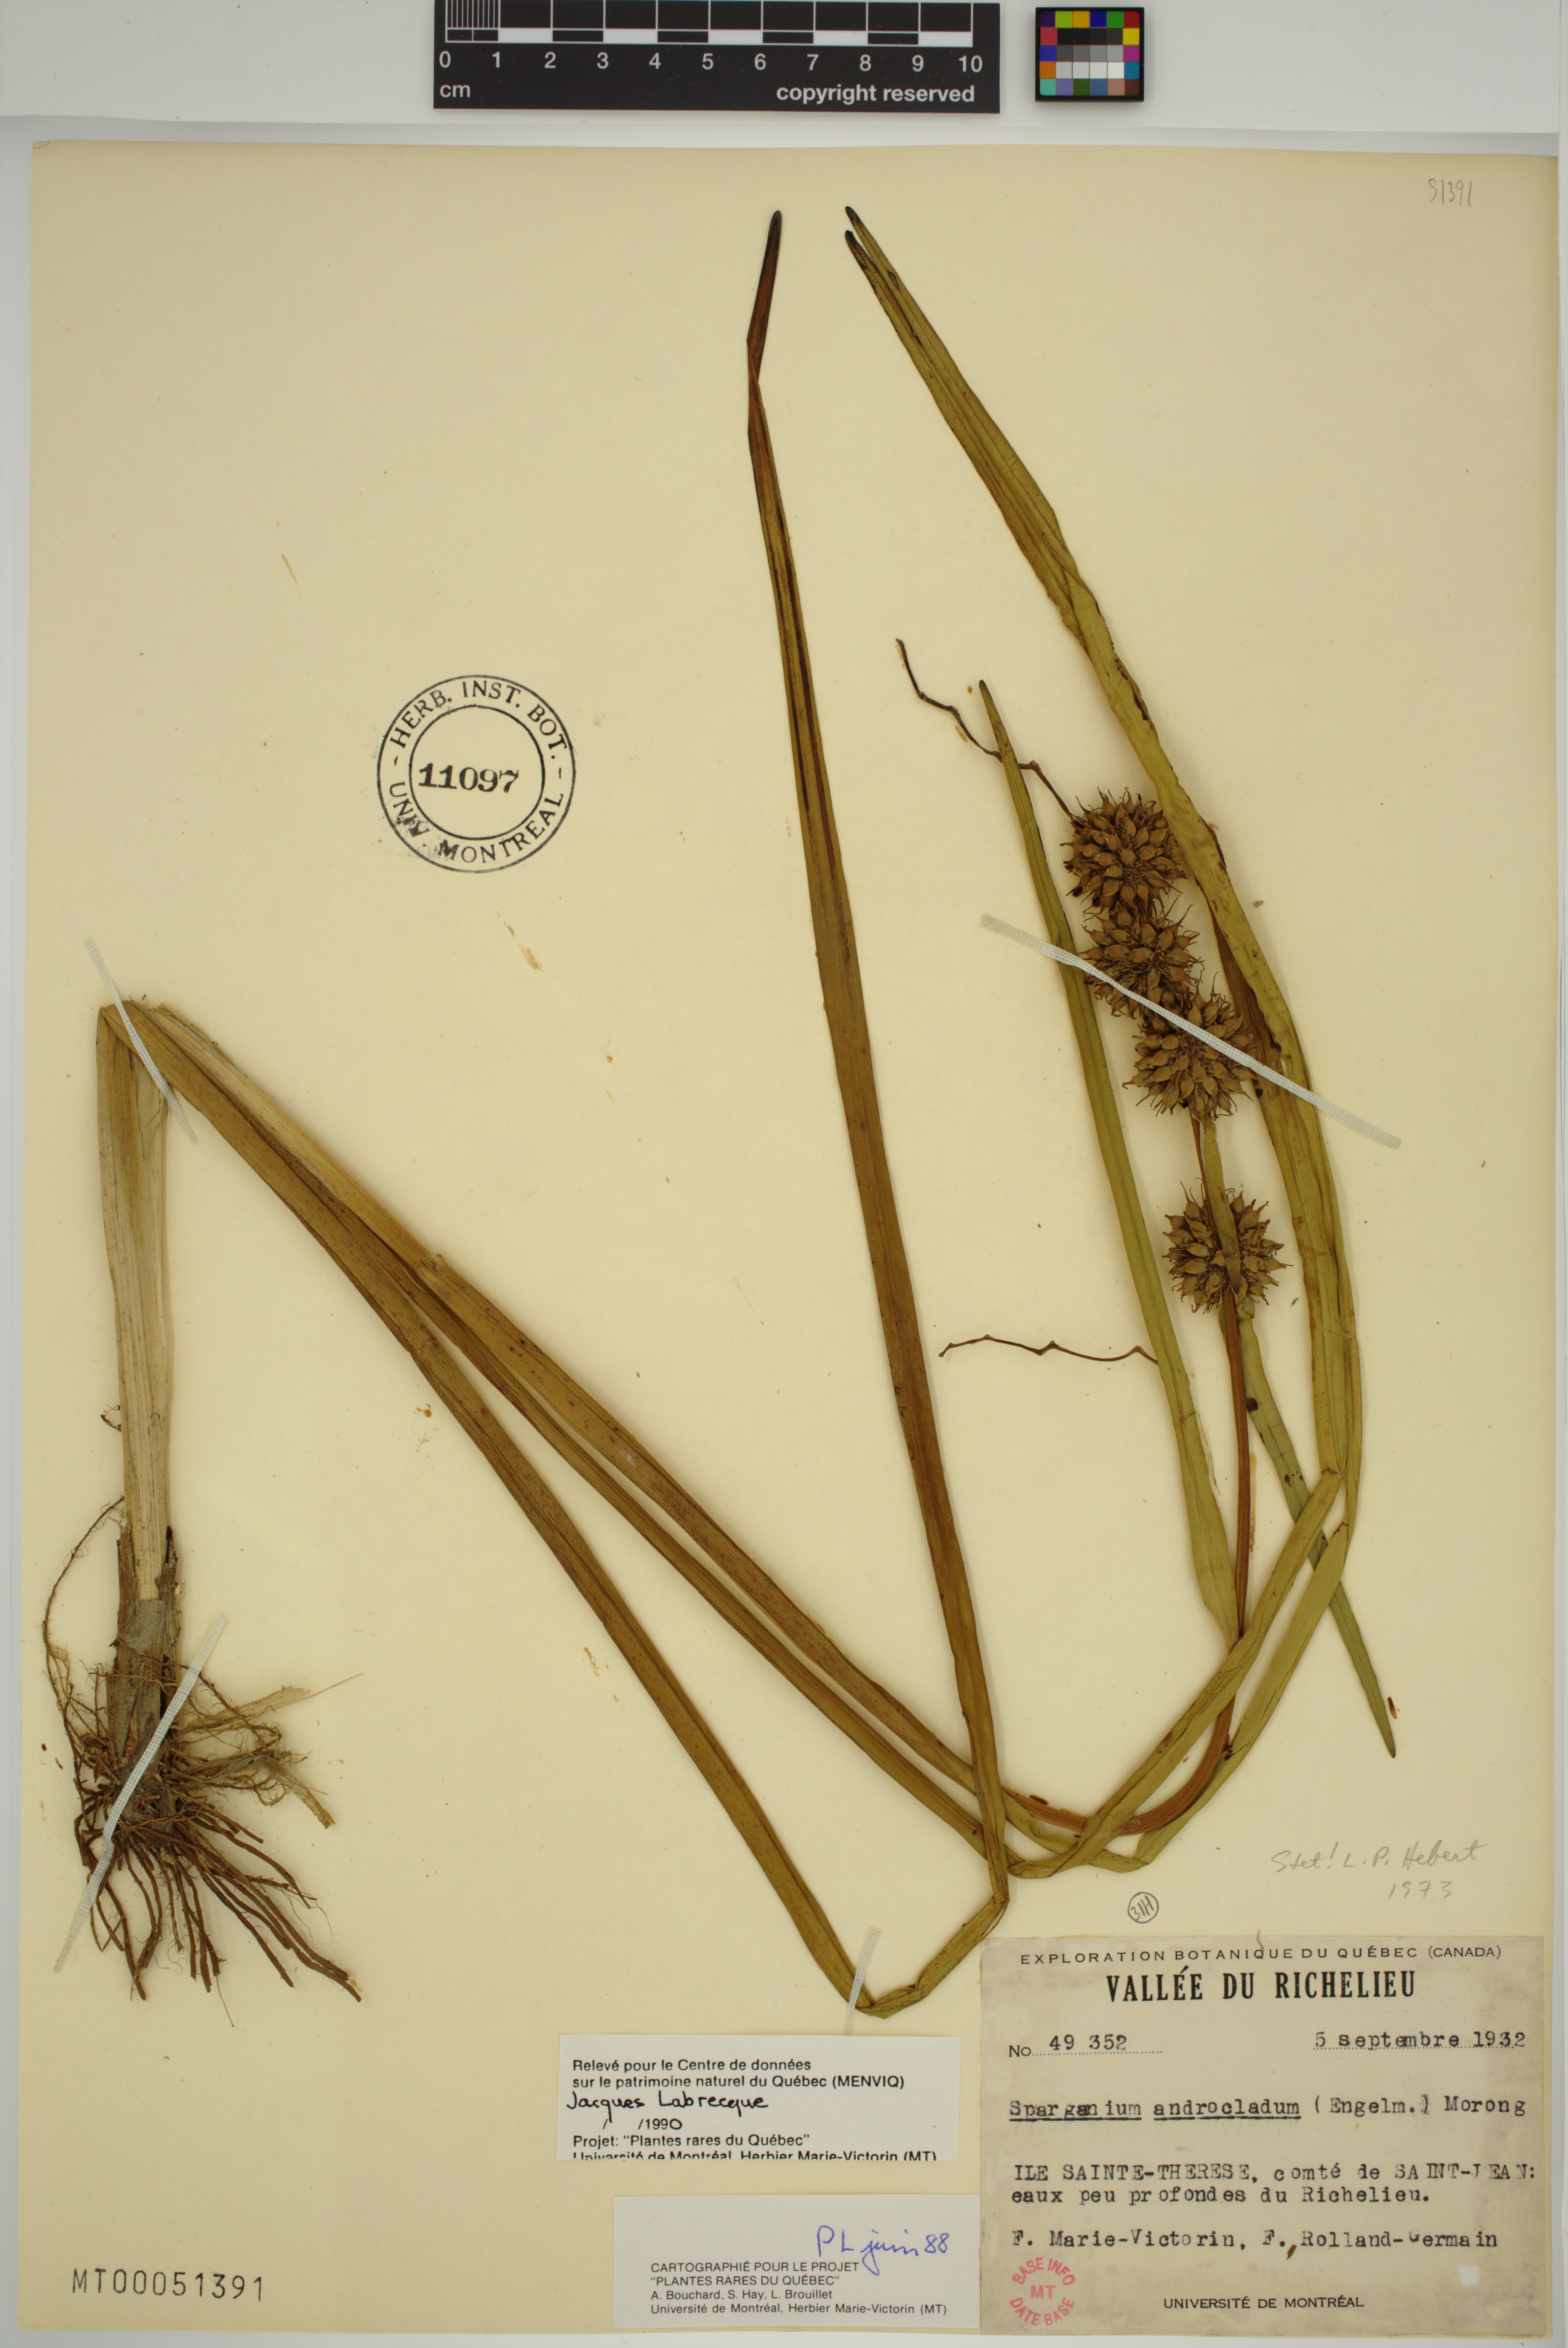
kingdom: Plantae
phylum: Tracheophyta
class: Liliopsida
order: Poales
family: Typhaceae
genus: Sparganium
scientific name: Sparganium androcladum
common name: Branched burreed
